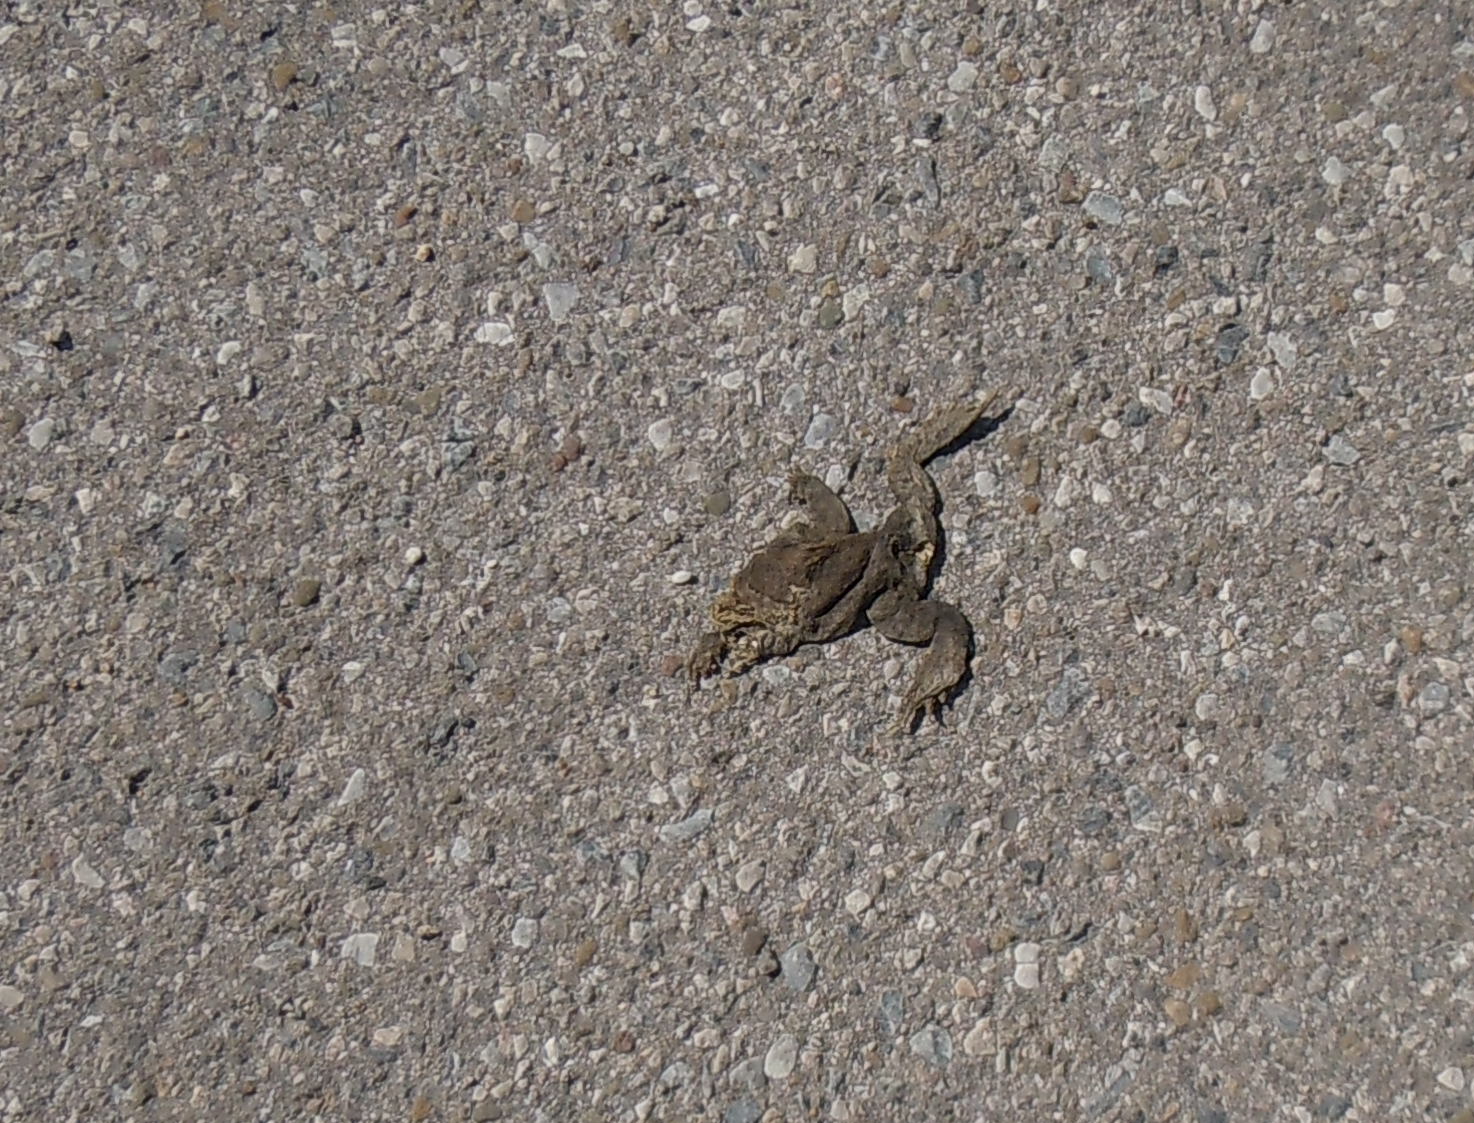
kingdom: Animalia
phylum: Chordata
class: Amphibia
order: Anura
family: Bufonidae
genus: Bufo
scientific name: Bufo bufo
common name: Common toad
